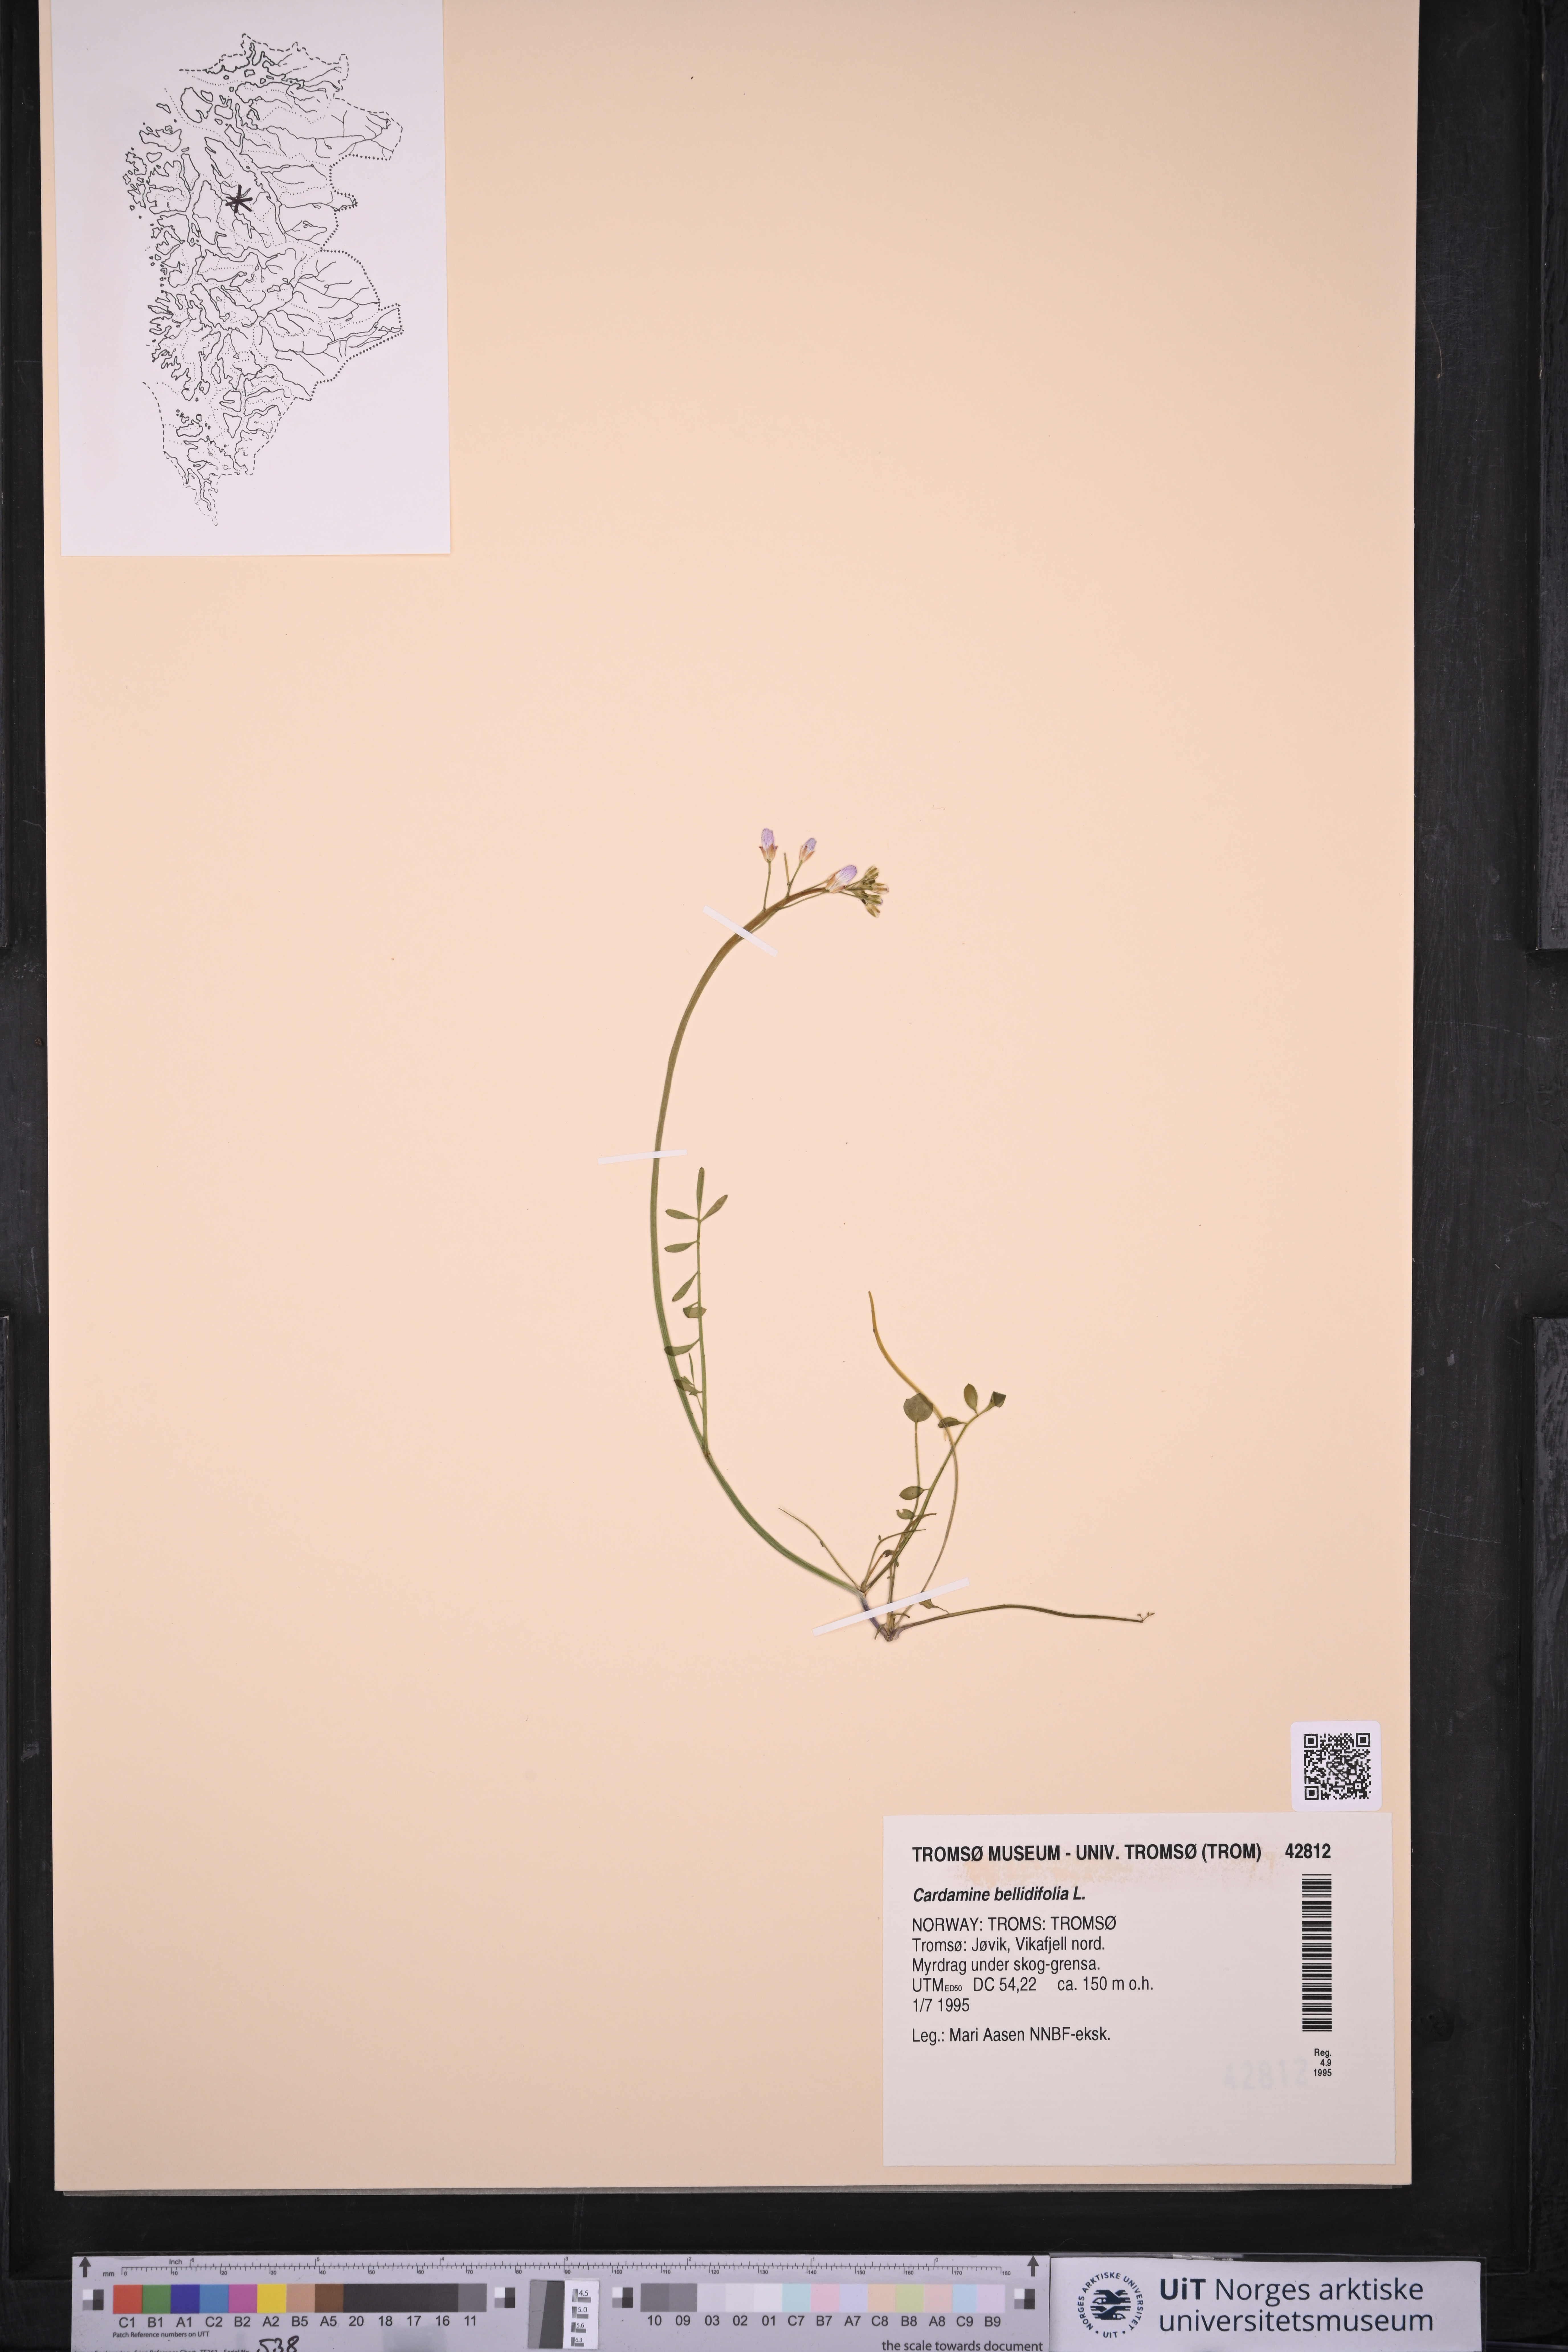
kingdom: Plantae
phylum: Tracheophyta
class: Magnoliopsida
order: Brassicales
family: Brassicaceae
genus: Cardamine
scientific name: Cardamine bellidifolia
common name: Alpine bittercress
